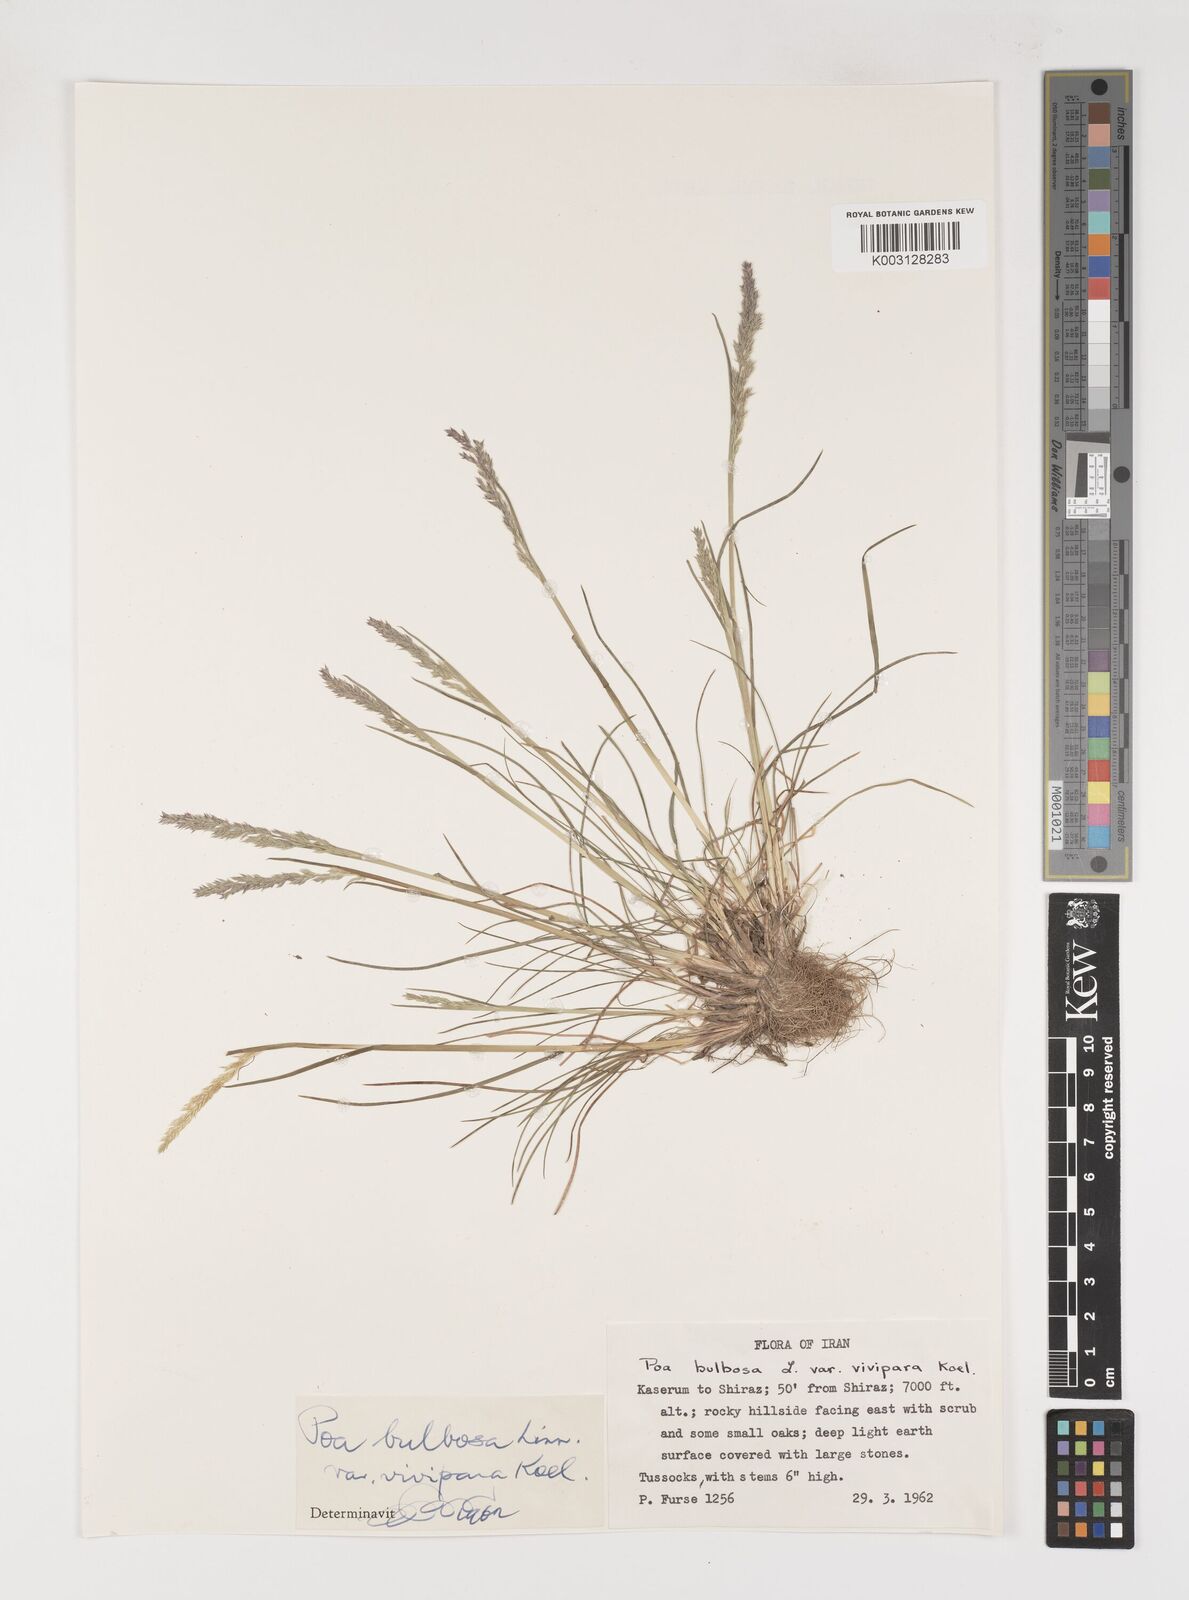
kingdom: Plantae
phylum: Tracheophyta
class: Liliopsida
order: Poales
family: Poaceae
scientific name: Poaceae
